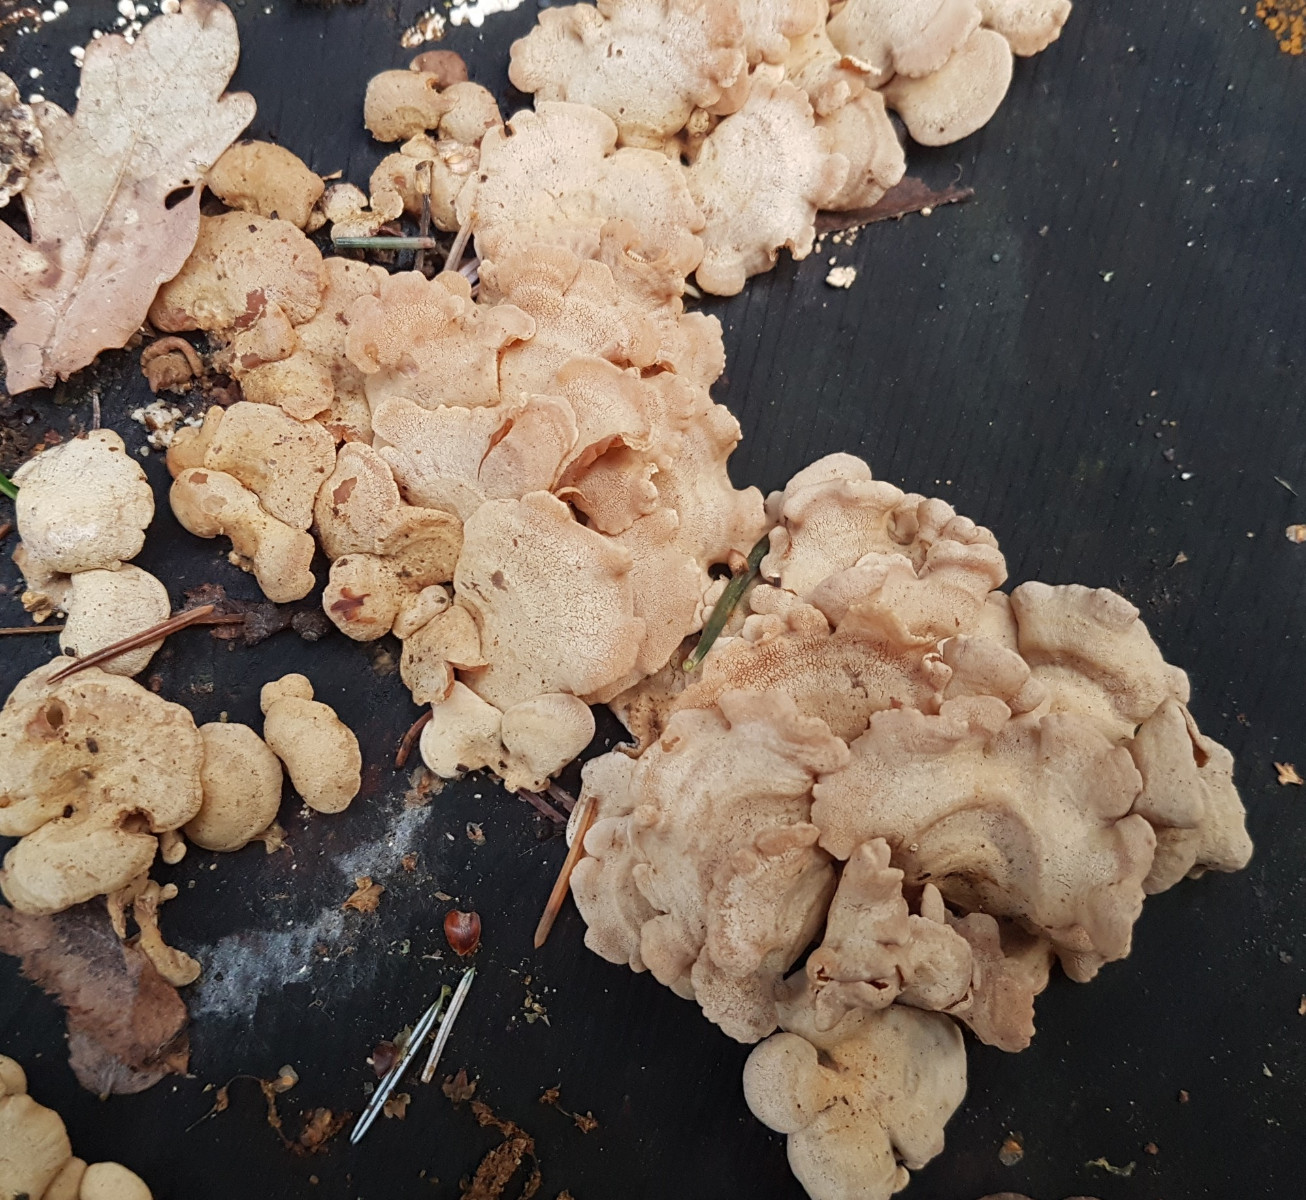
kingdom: Fungi
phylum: Basidiomycota
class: Agaricomycetes
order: Agaricales
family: Mycenaceae
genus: Panellus
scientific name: Panellus stipticus
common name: kliddet epaulethat
